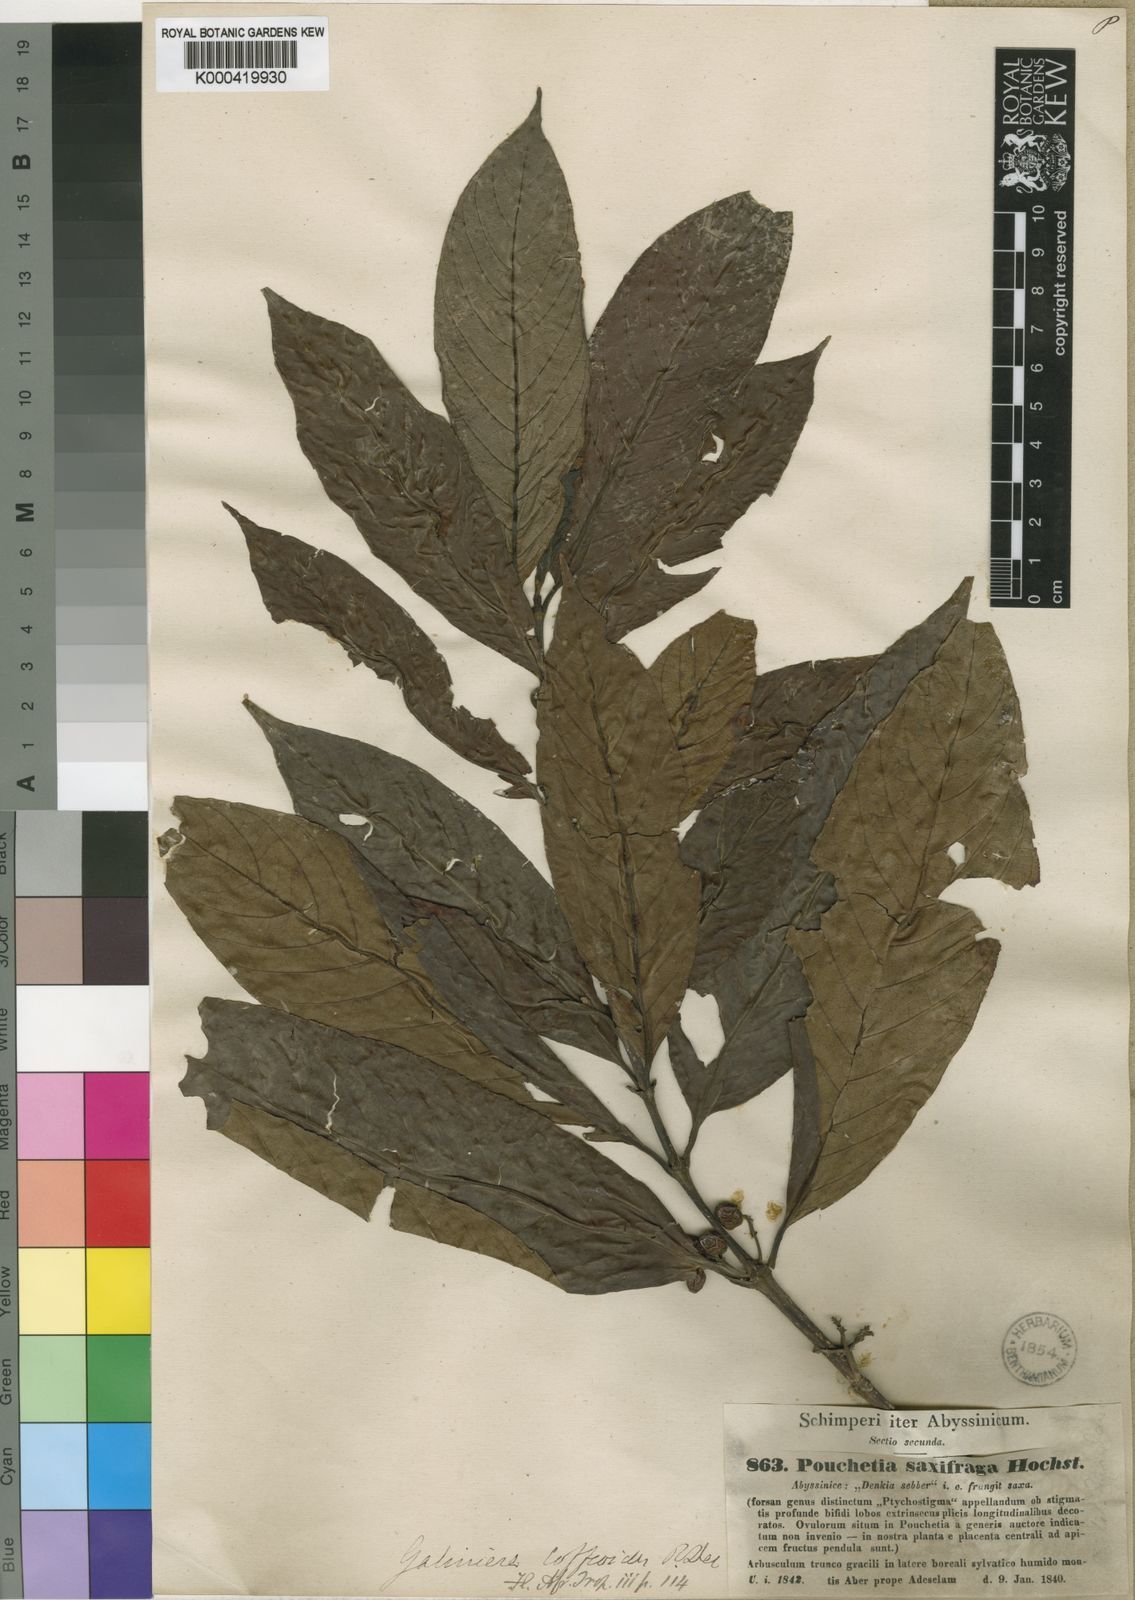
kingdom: Plantae
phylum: Tracheophyta
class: Magnoliopsida
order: Gentianales
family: Rubiaceae
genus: Galiniera
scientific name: Galiniera saxifraga
